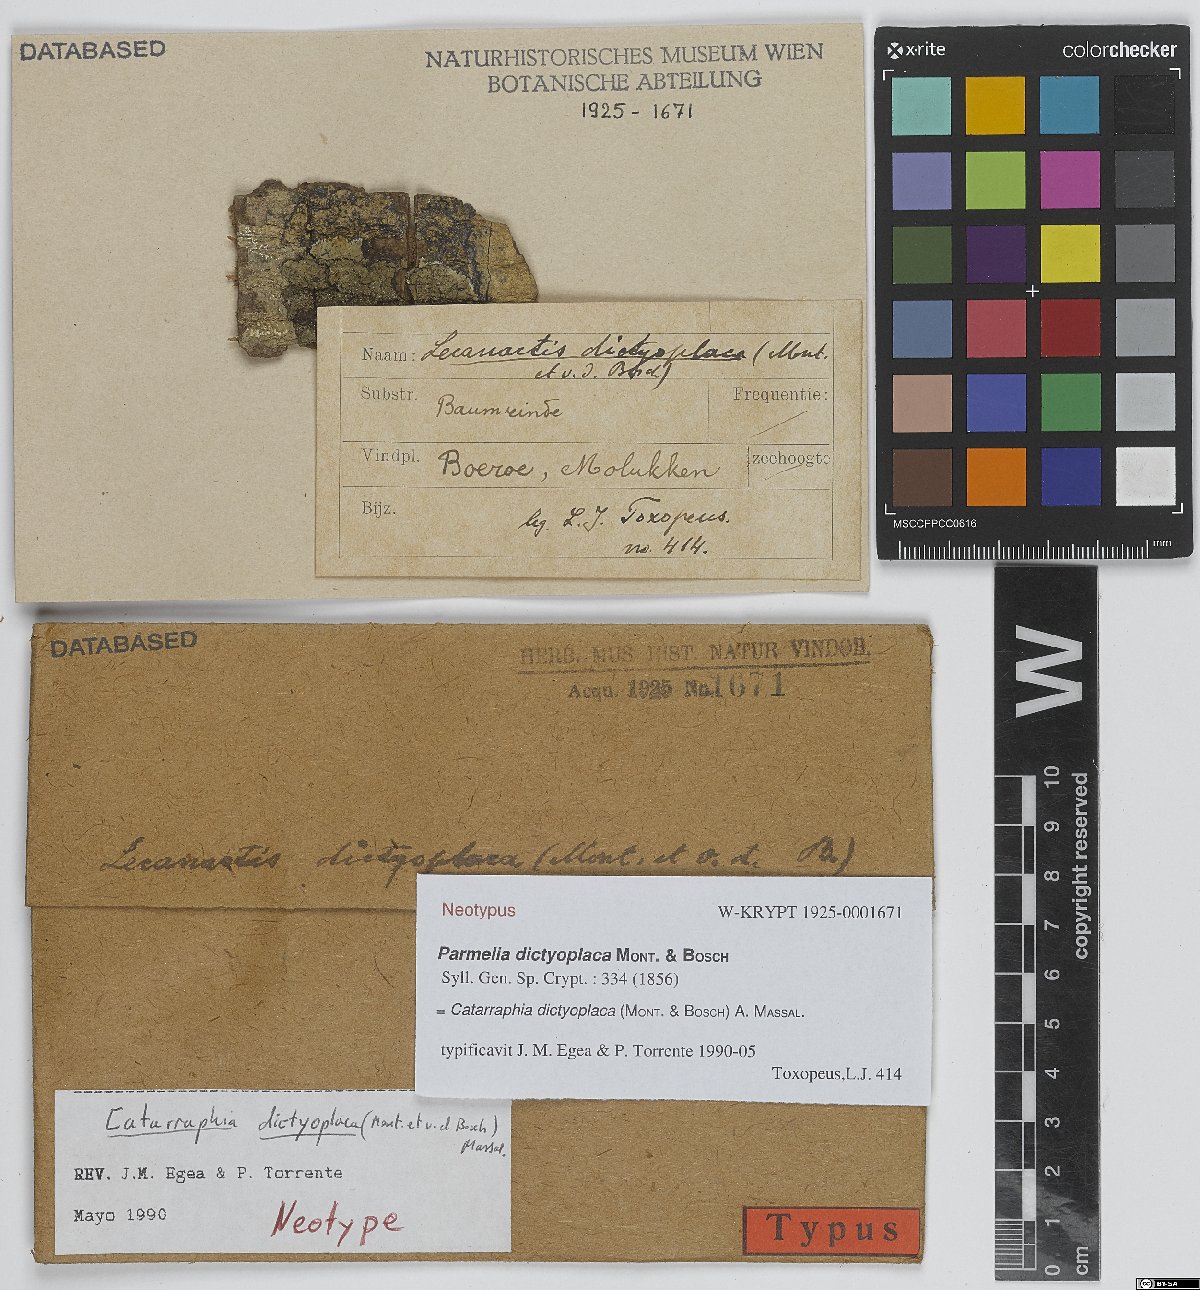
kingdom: Fungi
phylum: Ascomycota
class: Arthoniomycetes
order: Arthoniales
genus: Catarraphia
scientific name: Catarraphia dictyoplaca
